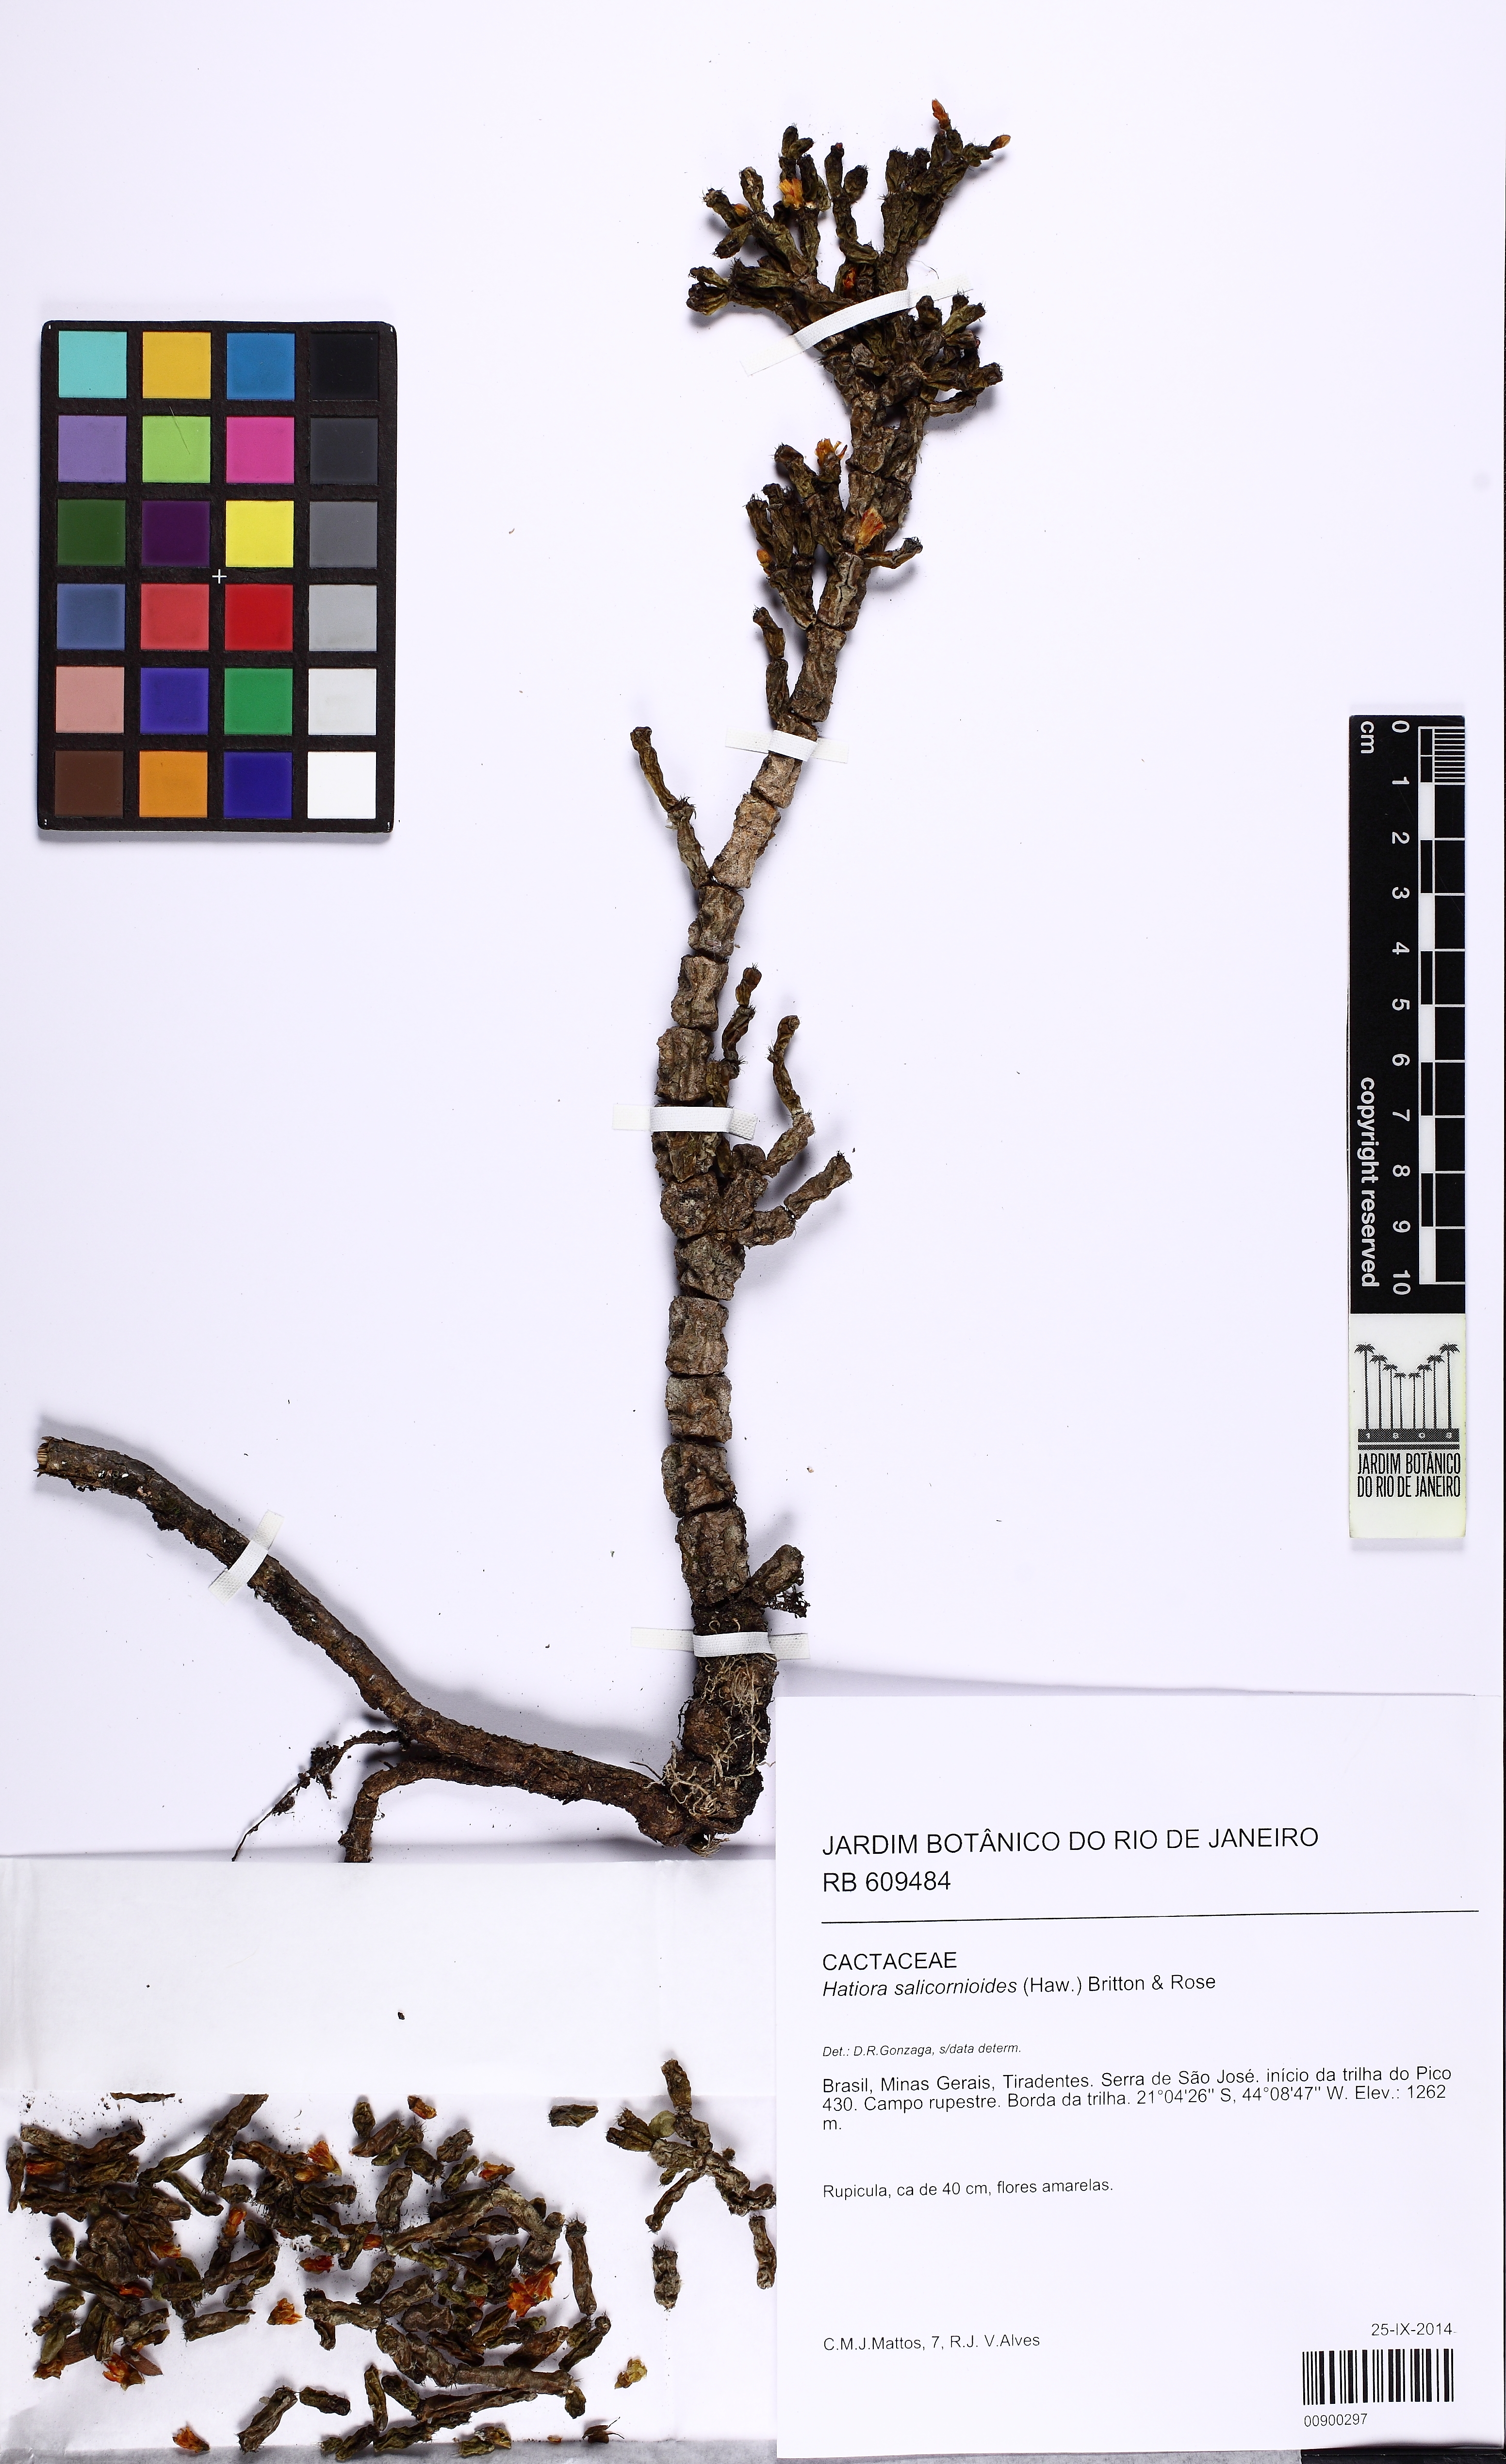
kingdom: Plantae
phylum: Tracheophyta
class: Magnoliopsida
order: Caryophyllales
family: Cactaceae
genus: Hatiora
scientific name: Hatiora salicornioides
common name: Dancing-bones
